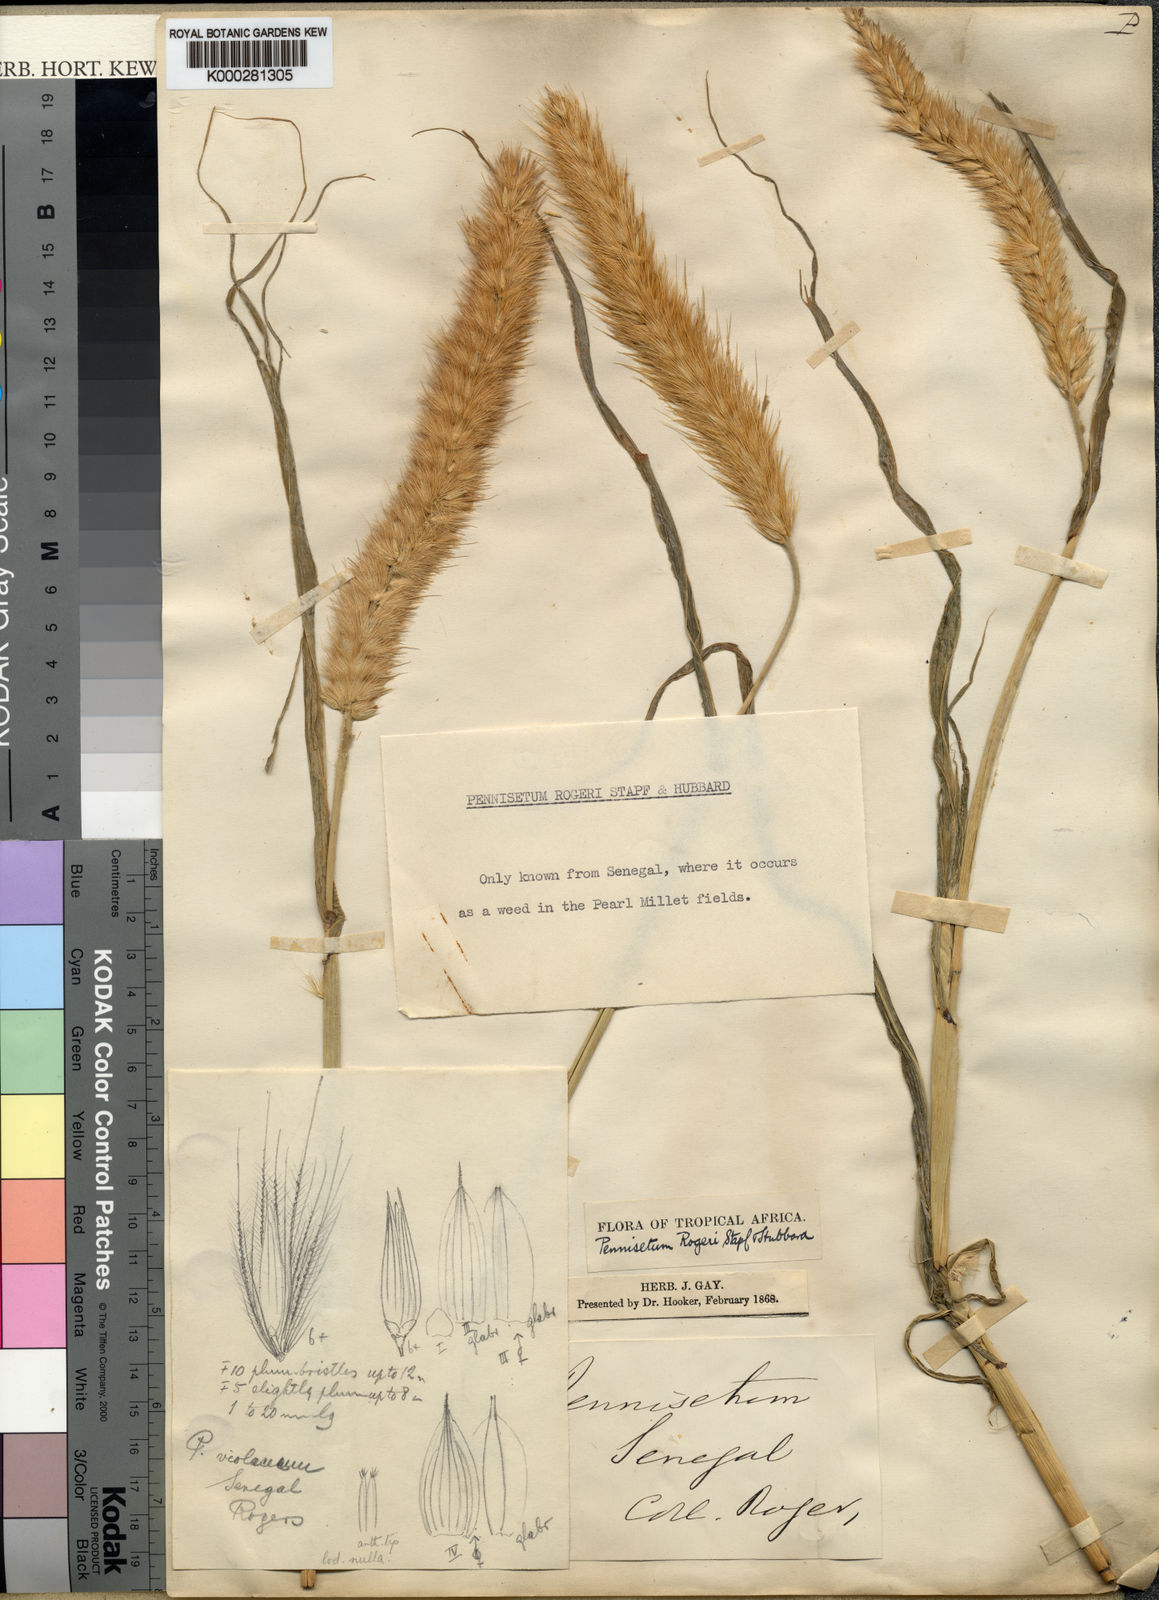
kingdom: Plantae
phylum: Tracheophyta
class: Liliopsida
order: Poales
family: Poaceae
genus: Cenchrus
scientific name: Cenchrus violaceus
